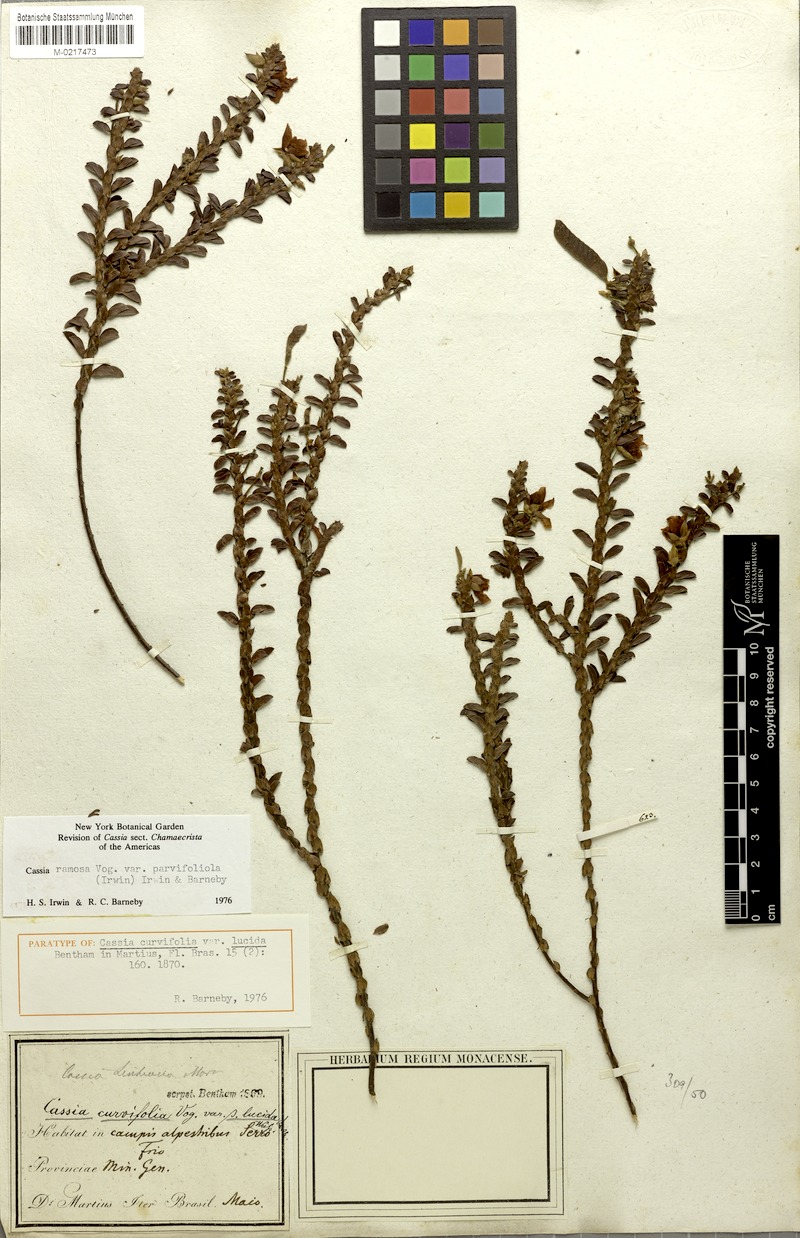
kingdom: Plantae
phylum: Tracheophyta
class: Magnoliopsida
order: Fabales
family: Fabaceae
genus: Chamaecrista
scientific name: Chamaecrista ramosa
